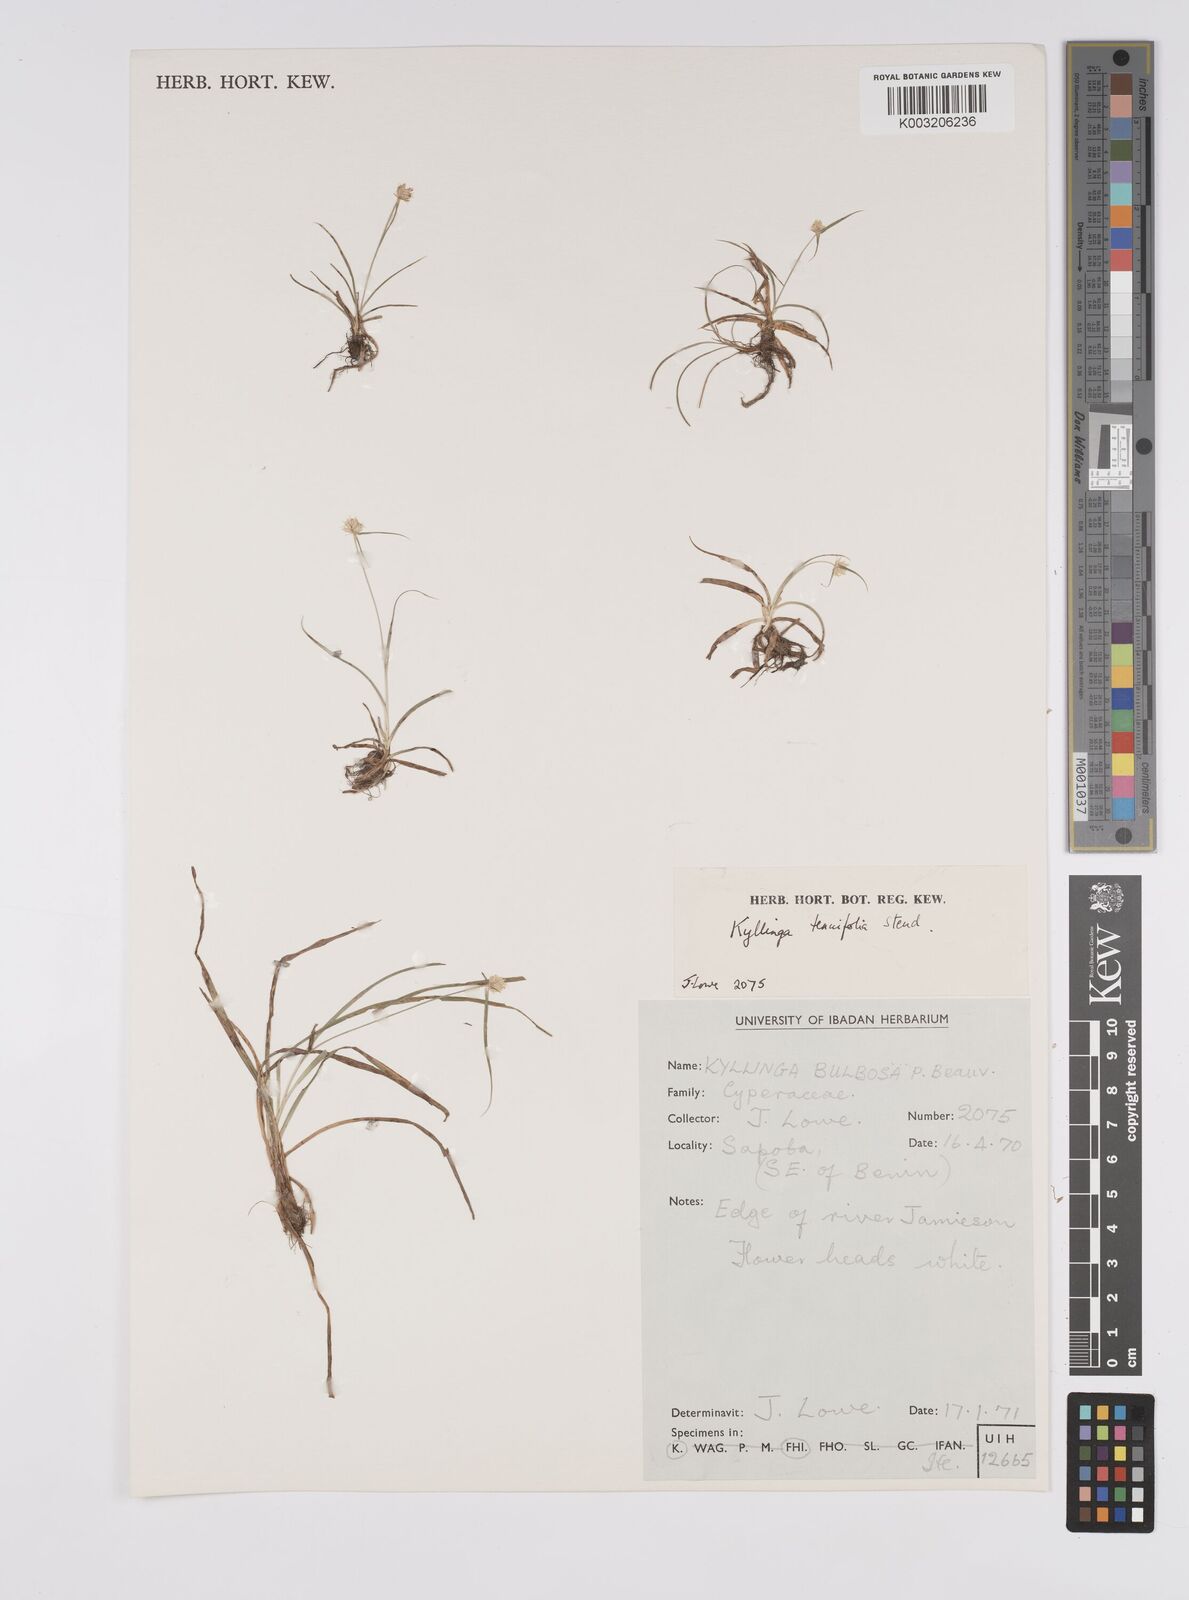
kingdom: Plantae
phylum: Tracheophyta
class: Liliopsida
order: Poales
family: Cyperaceae
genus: Cyperus
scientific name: Cyperus
